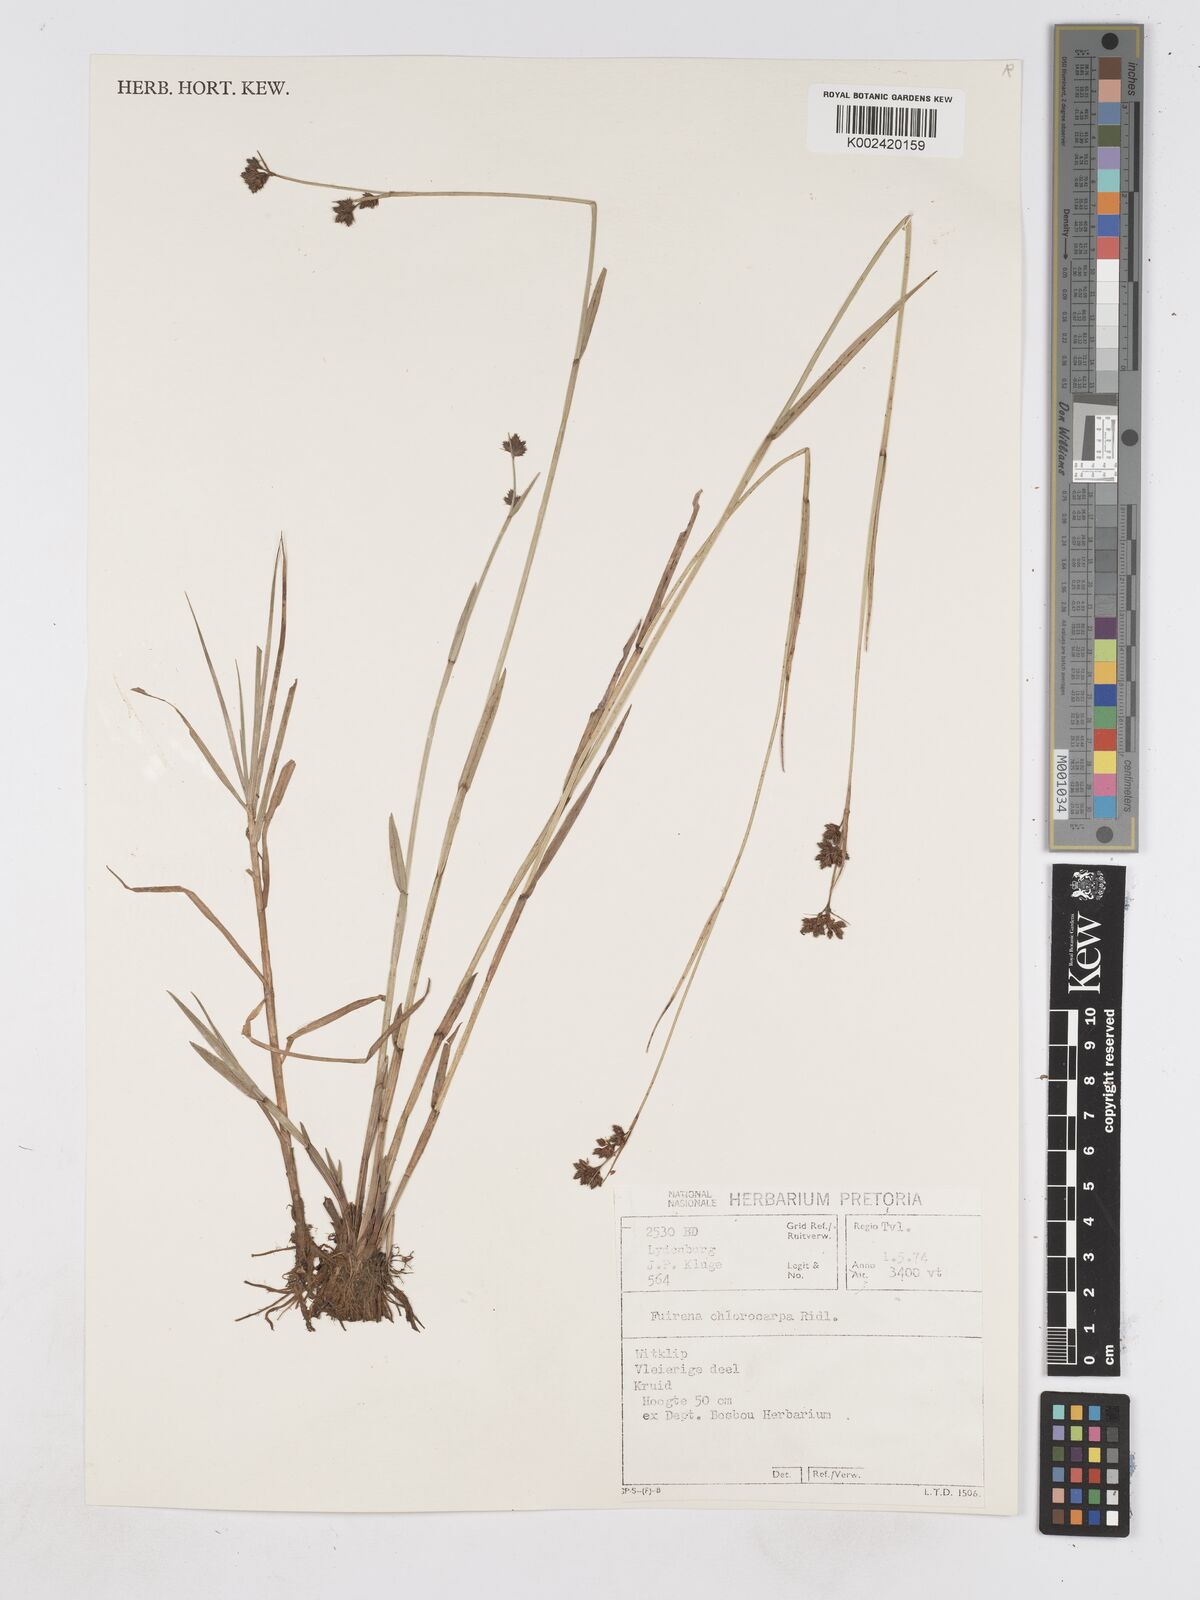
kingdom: Plantae
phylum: Tracheophyta
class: Liliopsida
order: Poales
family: Cyperaceae
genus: Fuirena
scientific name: Fuirena stricta
